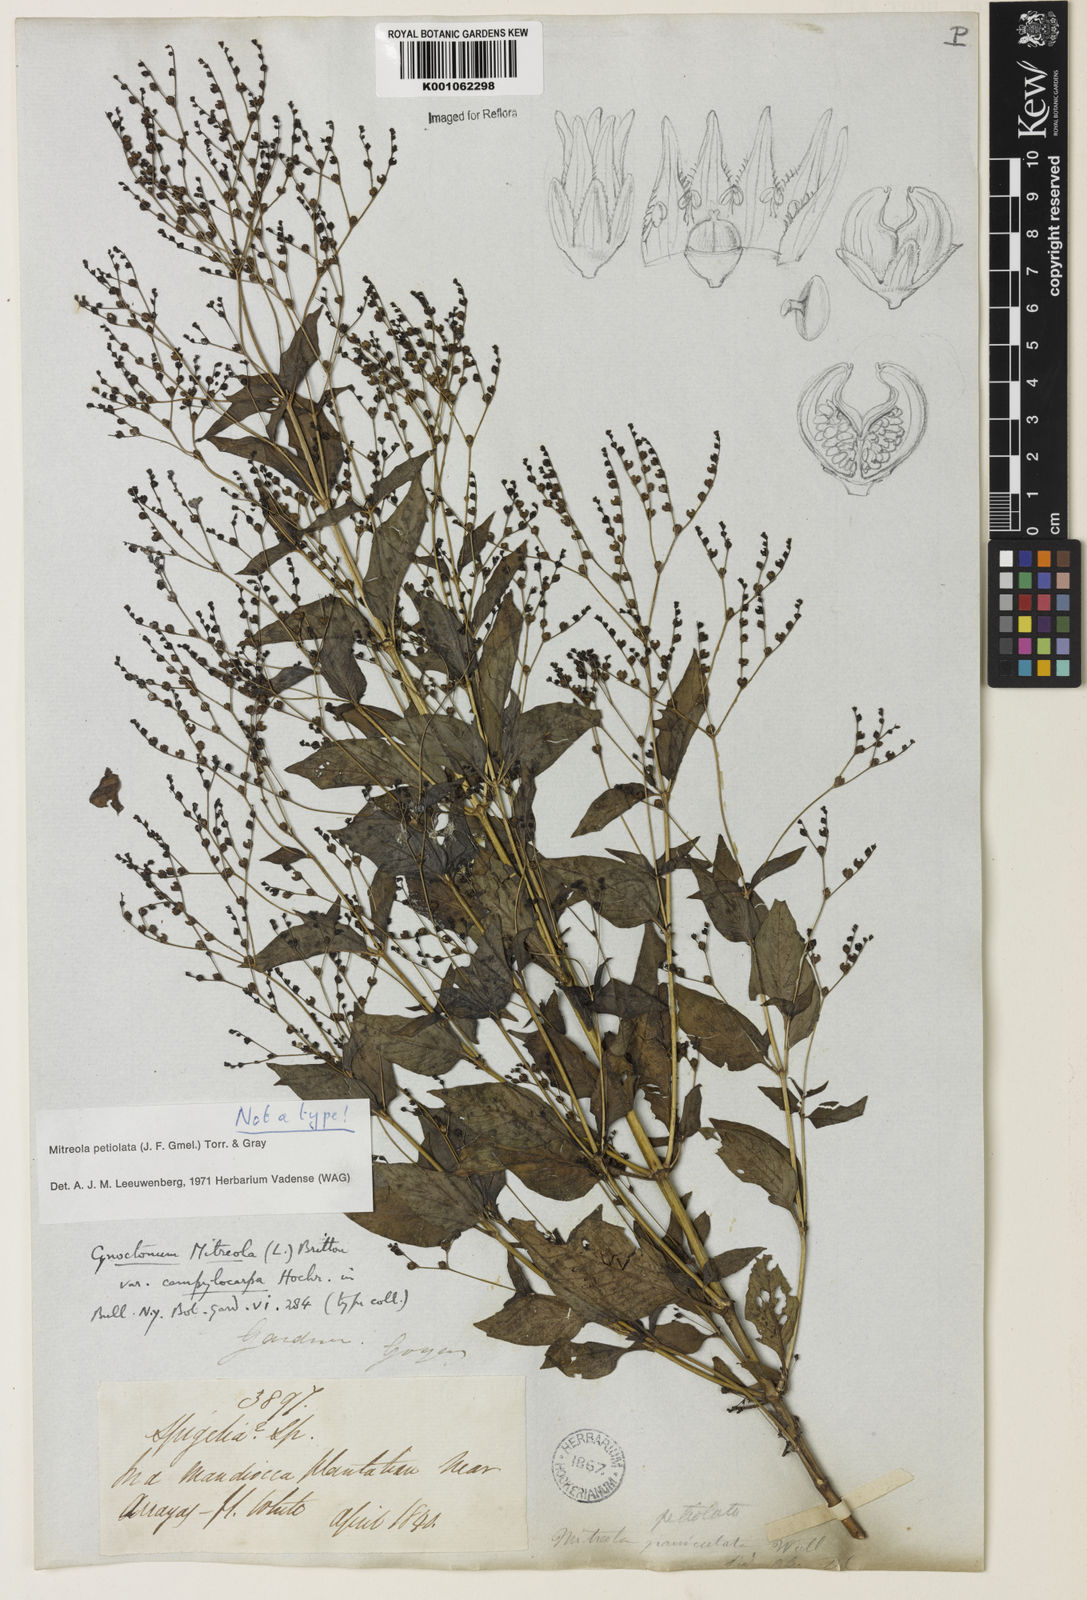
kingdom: Plantae
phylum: Tracheophyta
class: Magnoliopsida
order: Gentianales
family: Loganiaceae
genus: Mitreola
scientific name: Mitreola petiolata
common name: Lax hornpod
